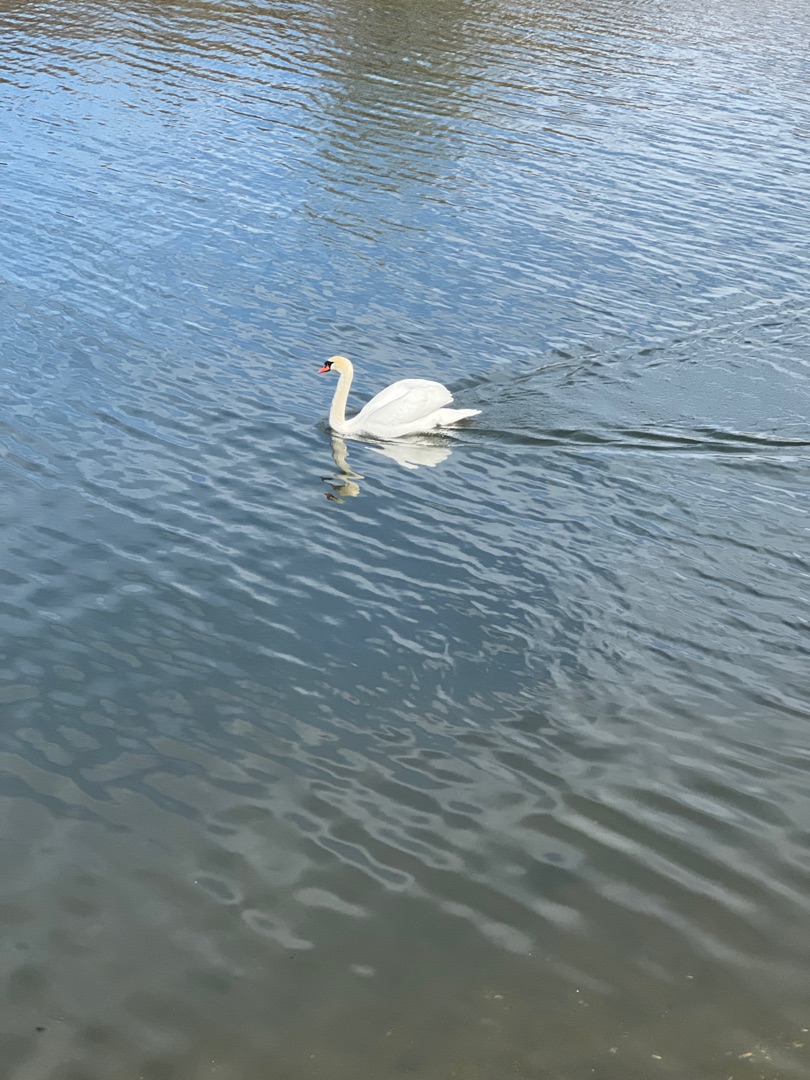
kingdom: Animalia
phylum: Chordata
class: Aves
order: Anseriformes
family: Anatidae
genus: Cygnus
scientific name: Cygnus olor
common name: Knopsvane
